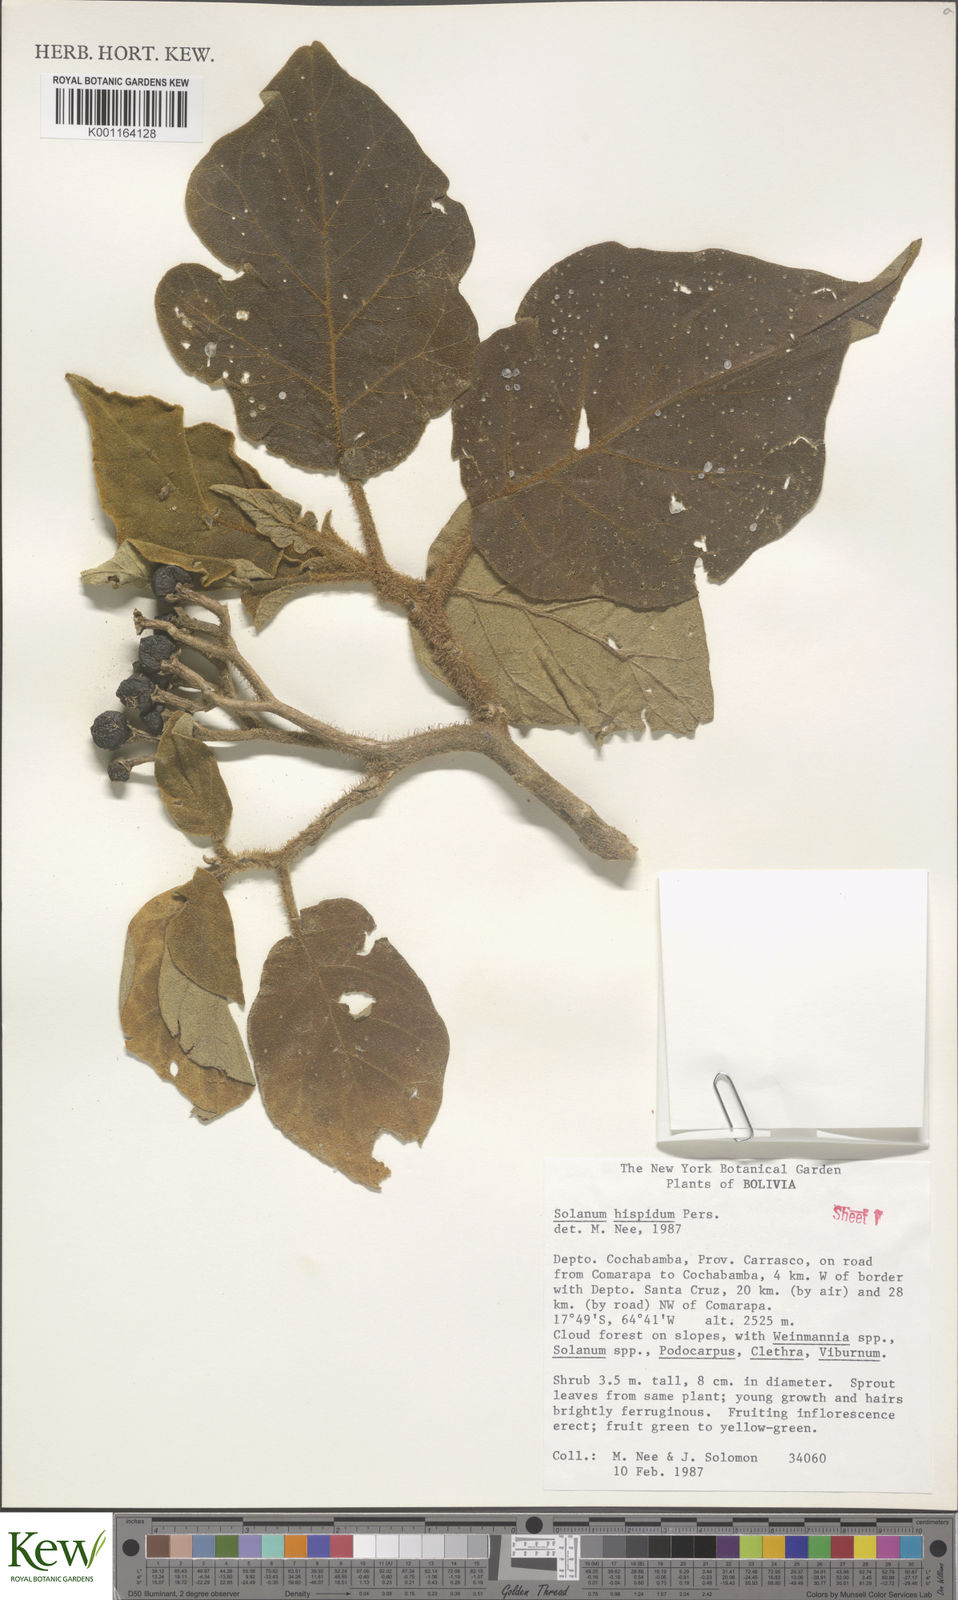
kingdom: Plantae
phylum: Tracheophyta
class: Magnoliopsida
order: Solanales
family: Solanaceae
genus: Solanum
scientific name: Solanum asperolanatum
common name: Devil's-fig
